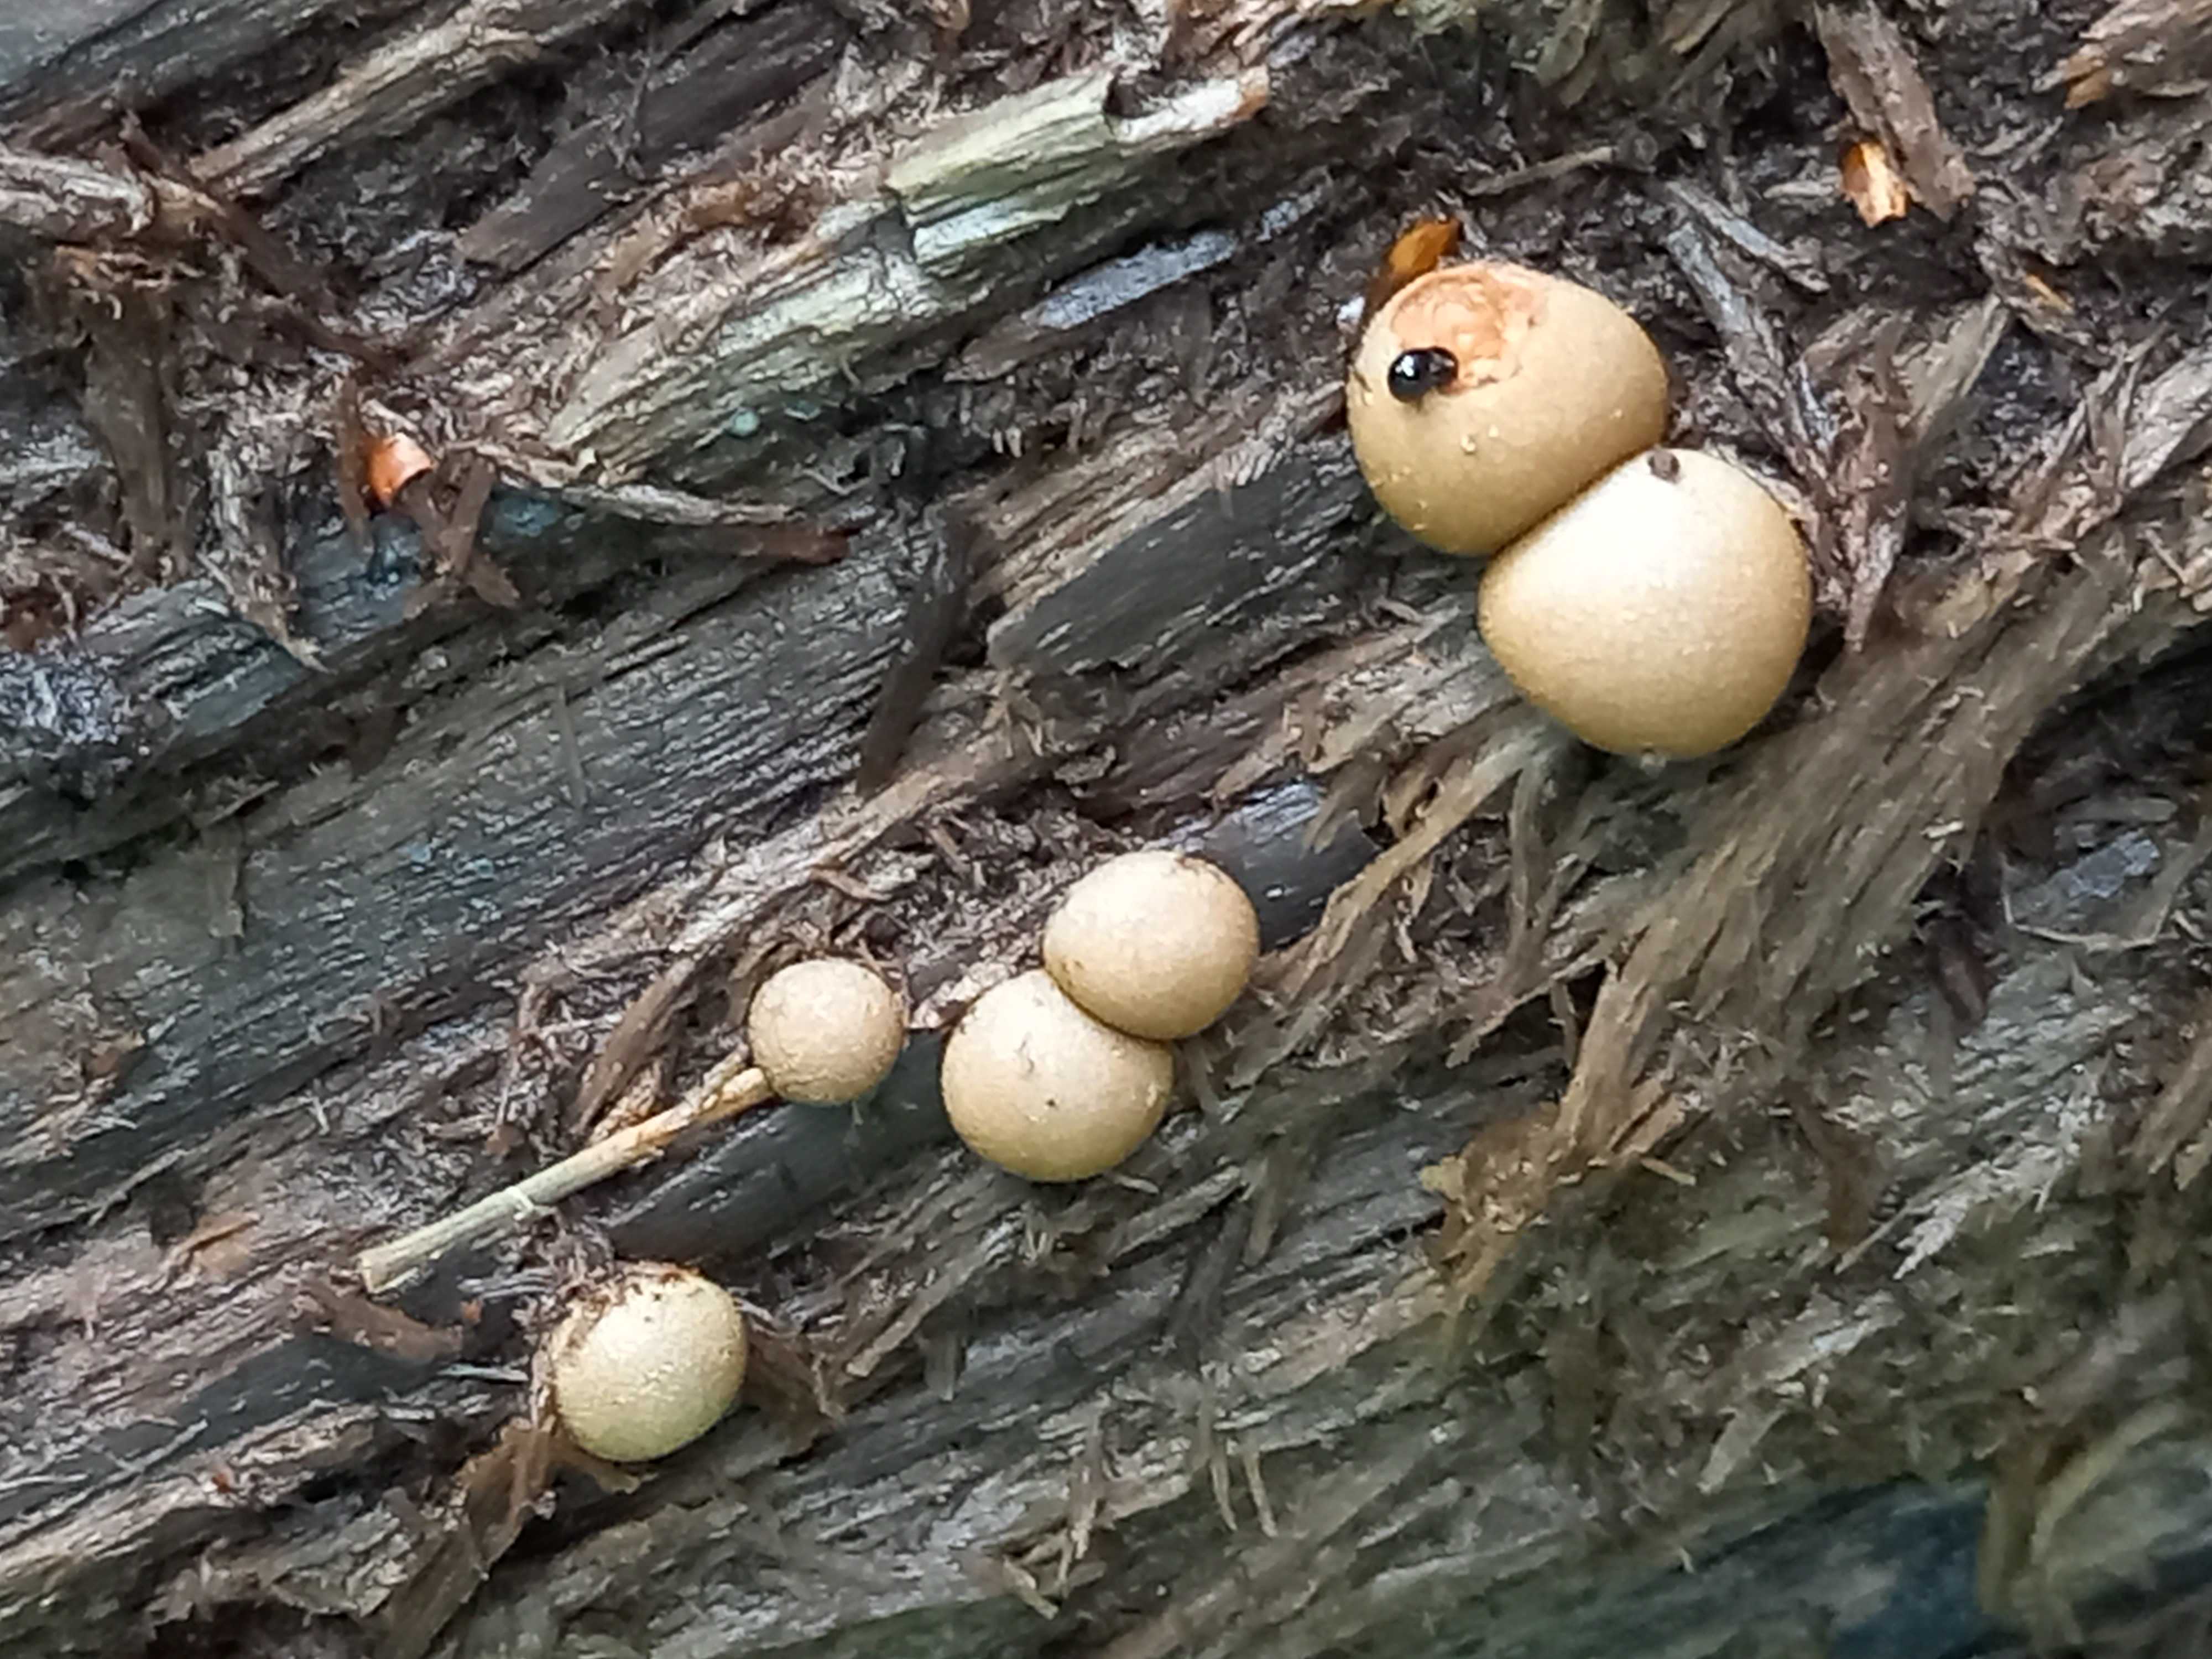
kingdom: Protozoa
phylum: Mycetozoa
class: Myxomycetes
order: Cribrariales
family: Tubiferaceae
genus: Lycogala
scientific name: Lycogala epidendrum
